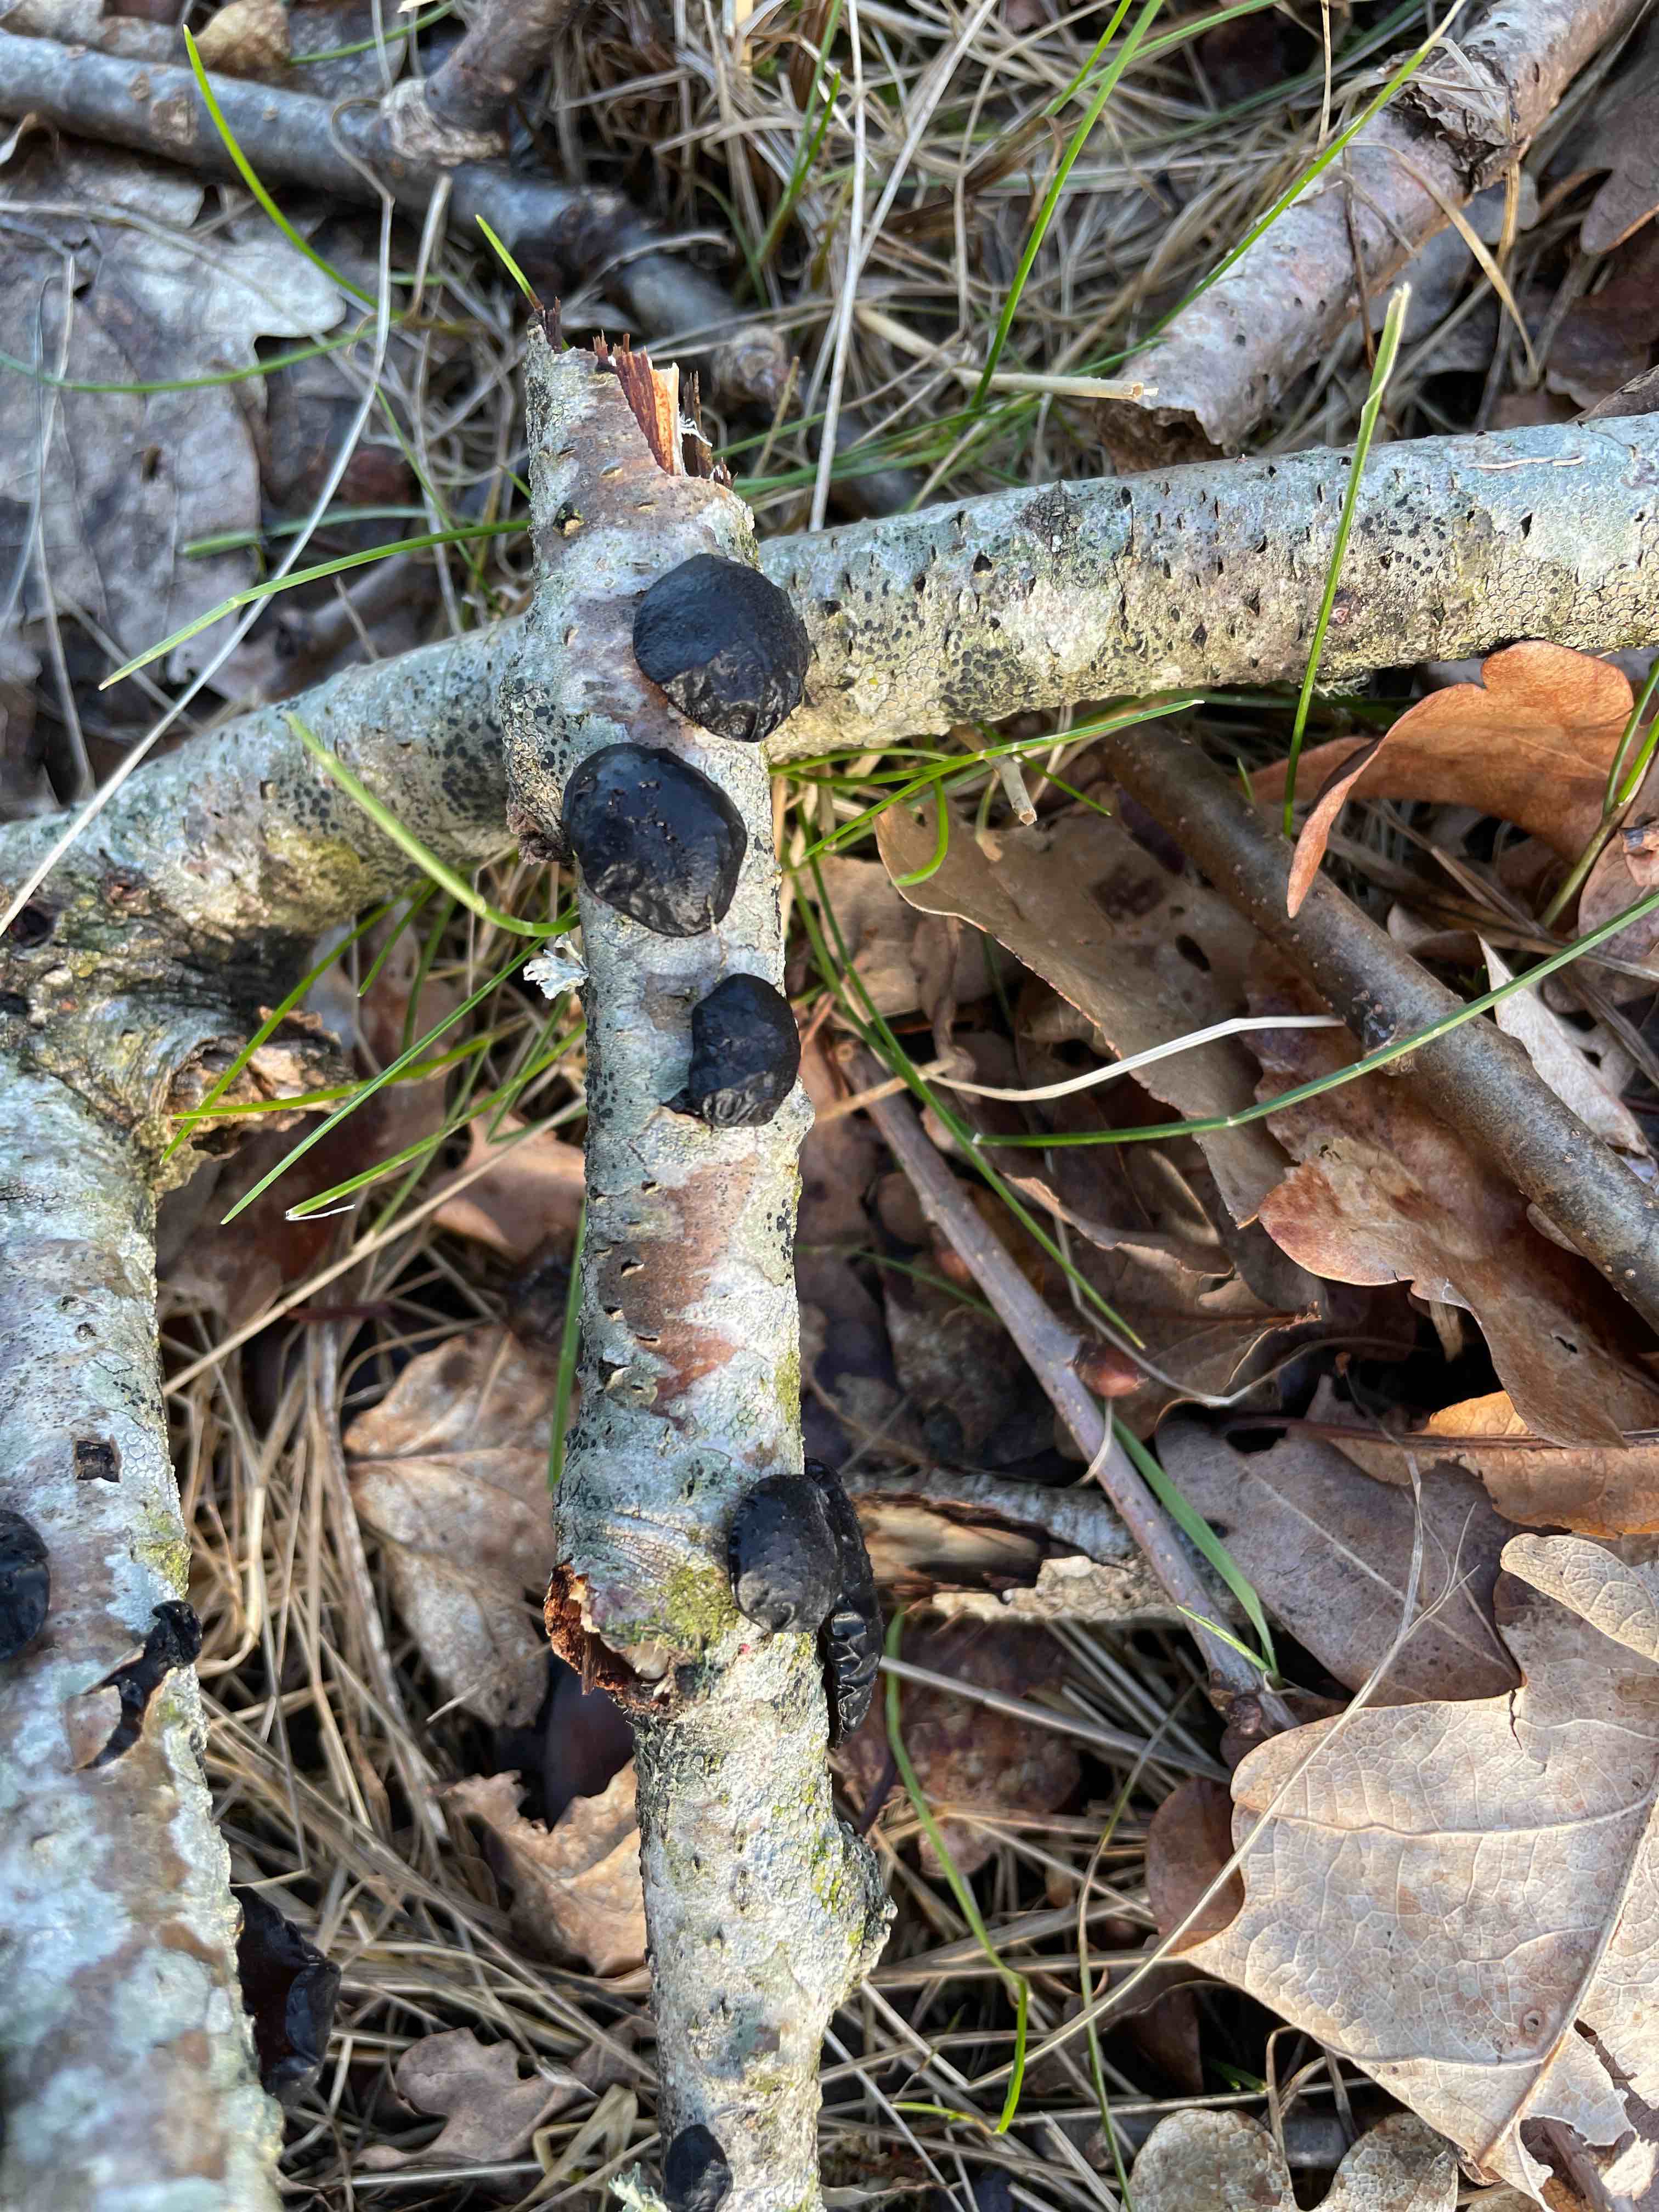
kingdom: Fungi
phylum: Basidiomycota
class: Agaricomycetes
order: Auriculariales
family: Auriculariaceae
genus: Exidia
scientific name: Exidia glandulosa
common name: ege-bævretop
